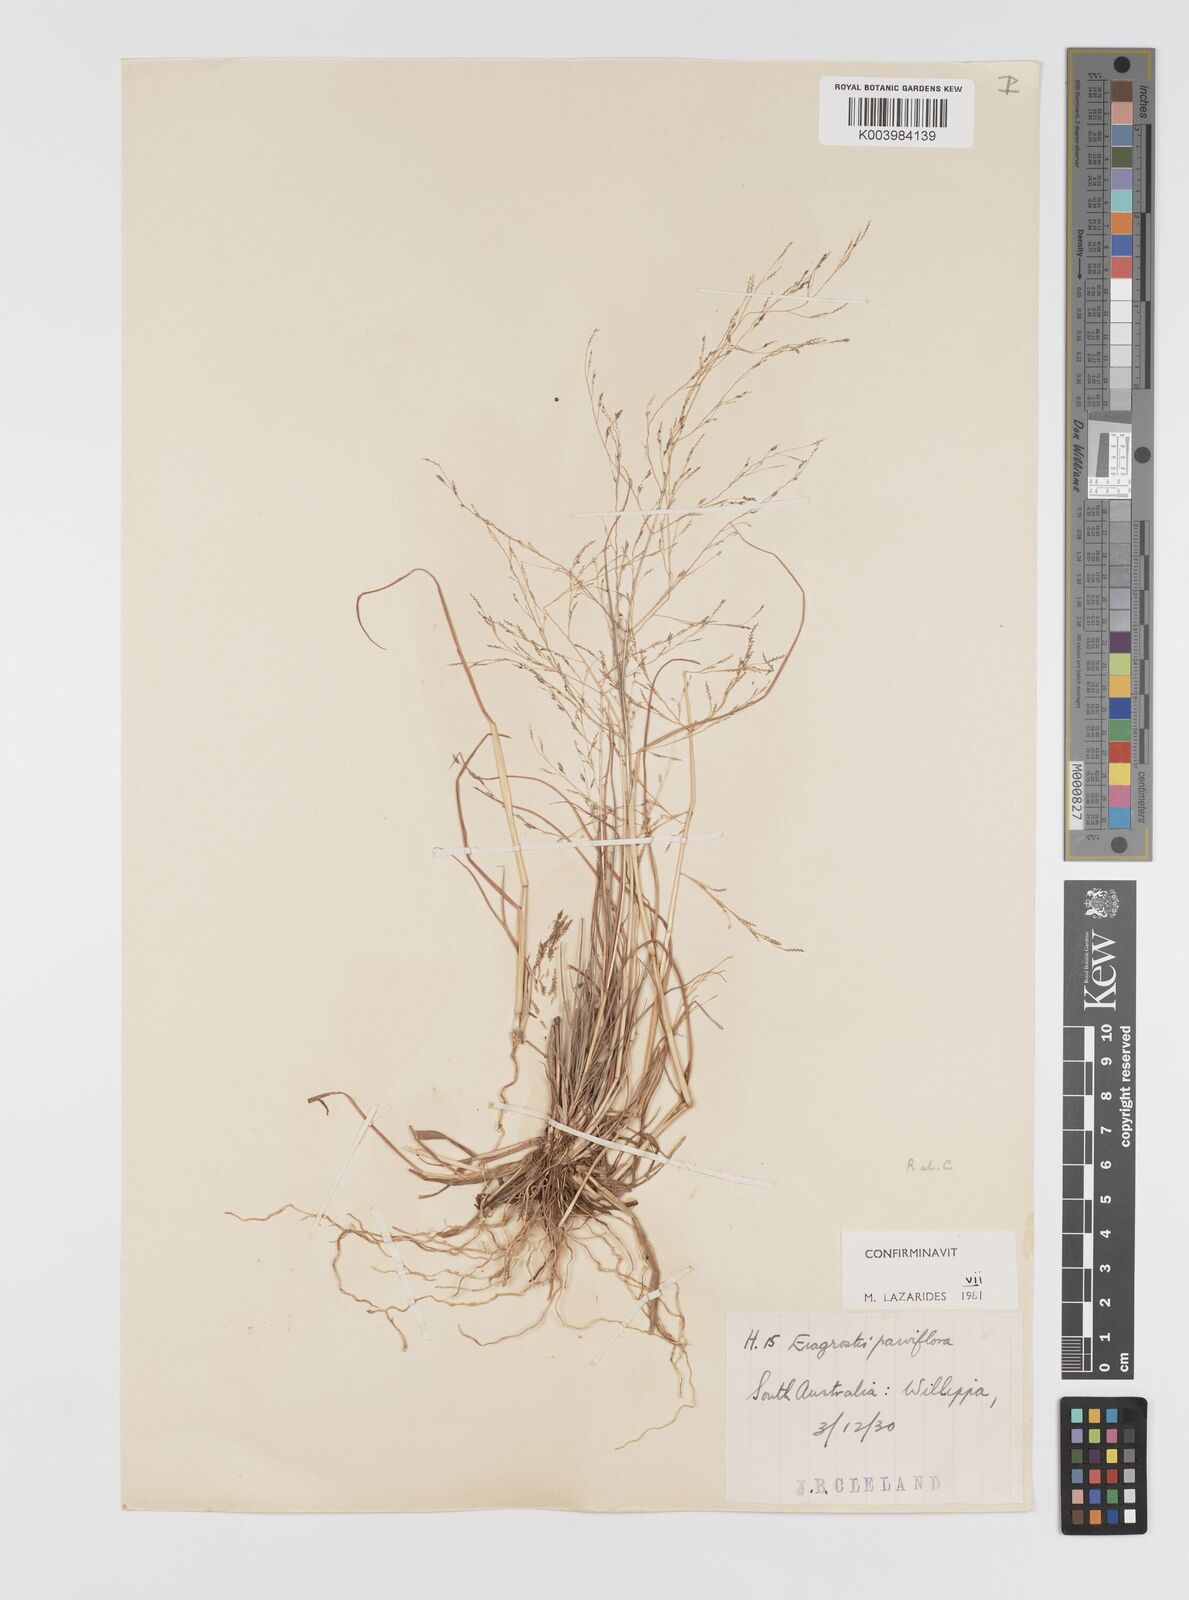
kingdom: Plantae
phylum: Tracheophyta
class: Liliopsida
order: Poales
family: Poaceae
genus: Eragrostis
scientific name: Eragrostis parviflora
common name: Weeping love-grass
